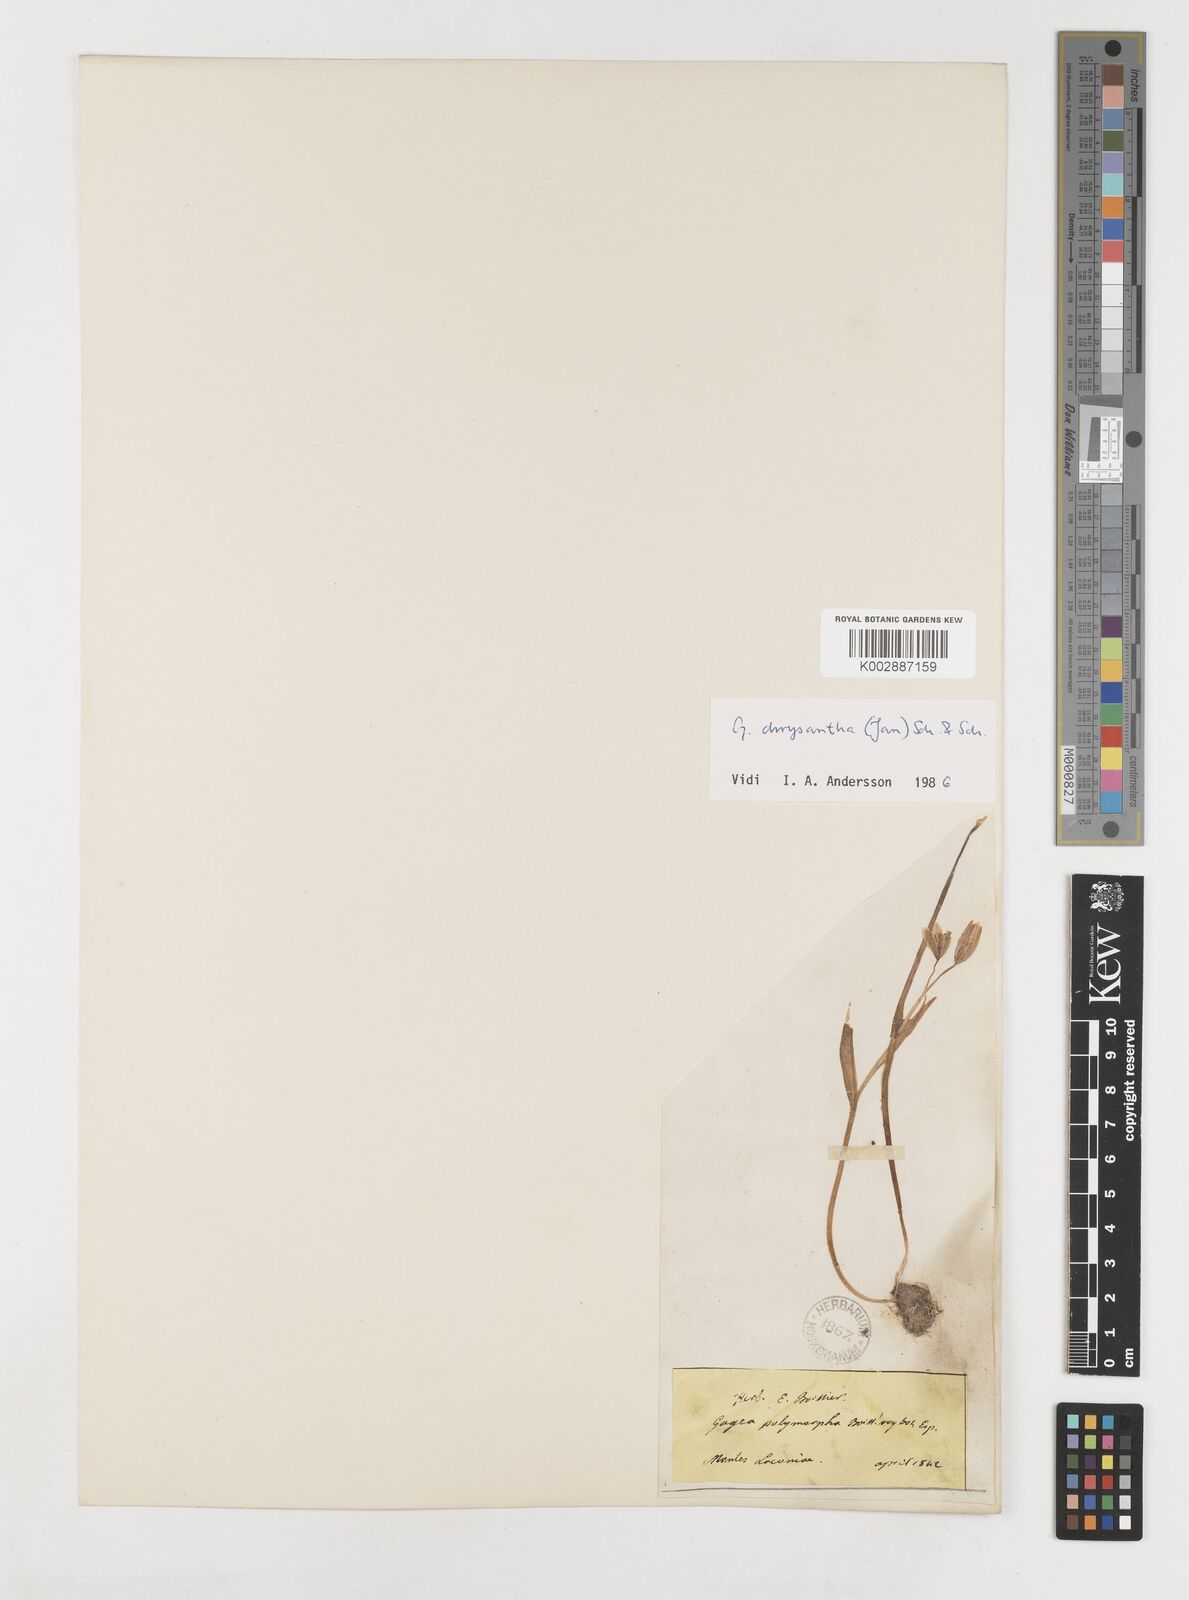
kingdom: Plantae
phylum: Tracheophyta
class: Liliopsida
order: Liliales
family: Liliaceae
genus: Gagea
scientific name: Gagea peduncularis
